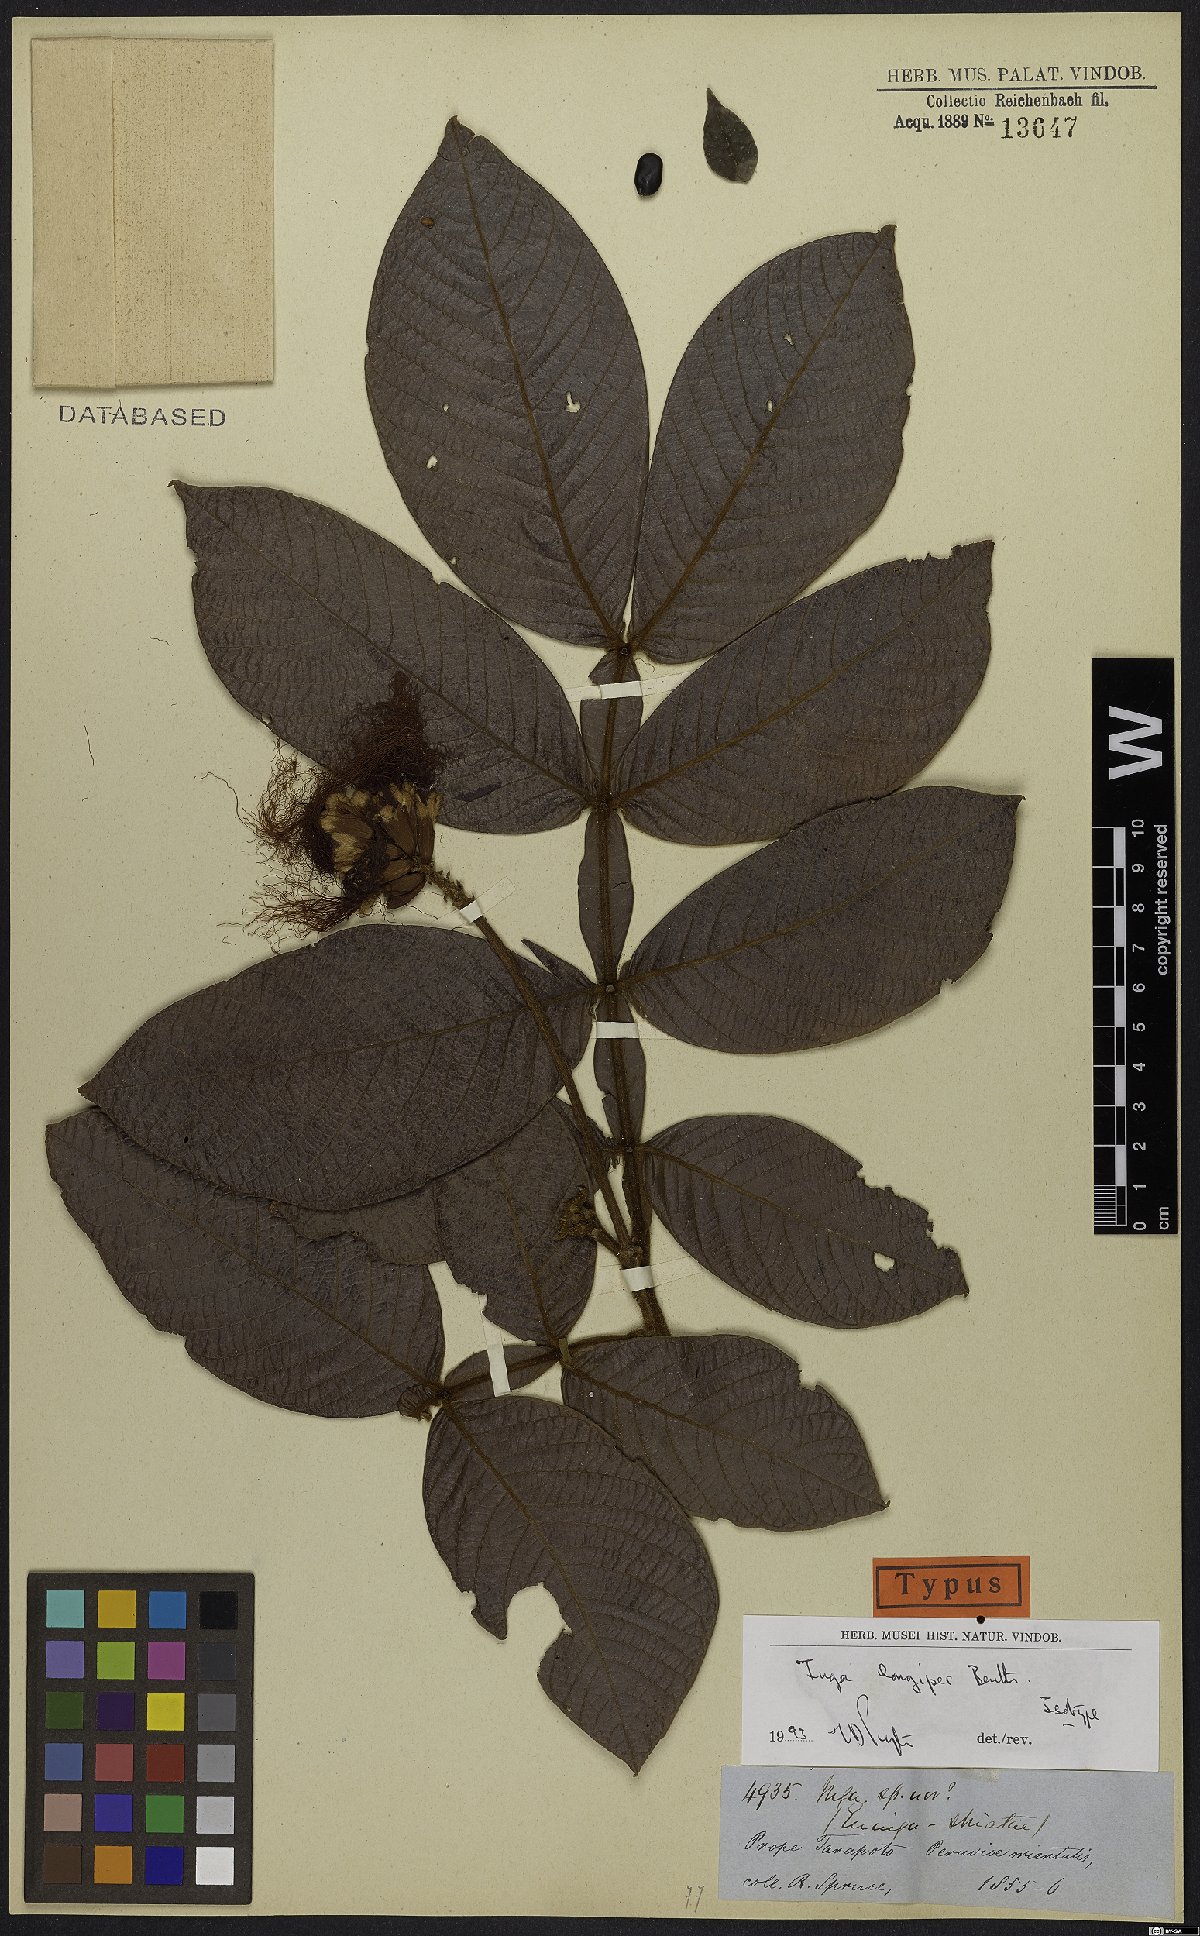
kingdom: Plantae
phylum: Tracheophyta
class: Magnoliopsida
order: Fabales
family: Fabaceae
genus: Inga
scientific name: Inga longipes
